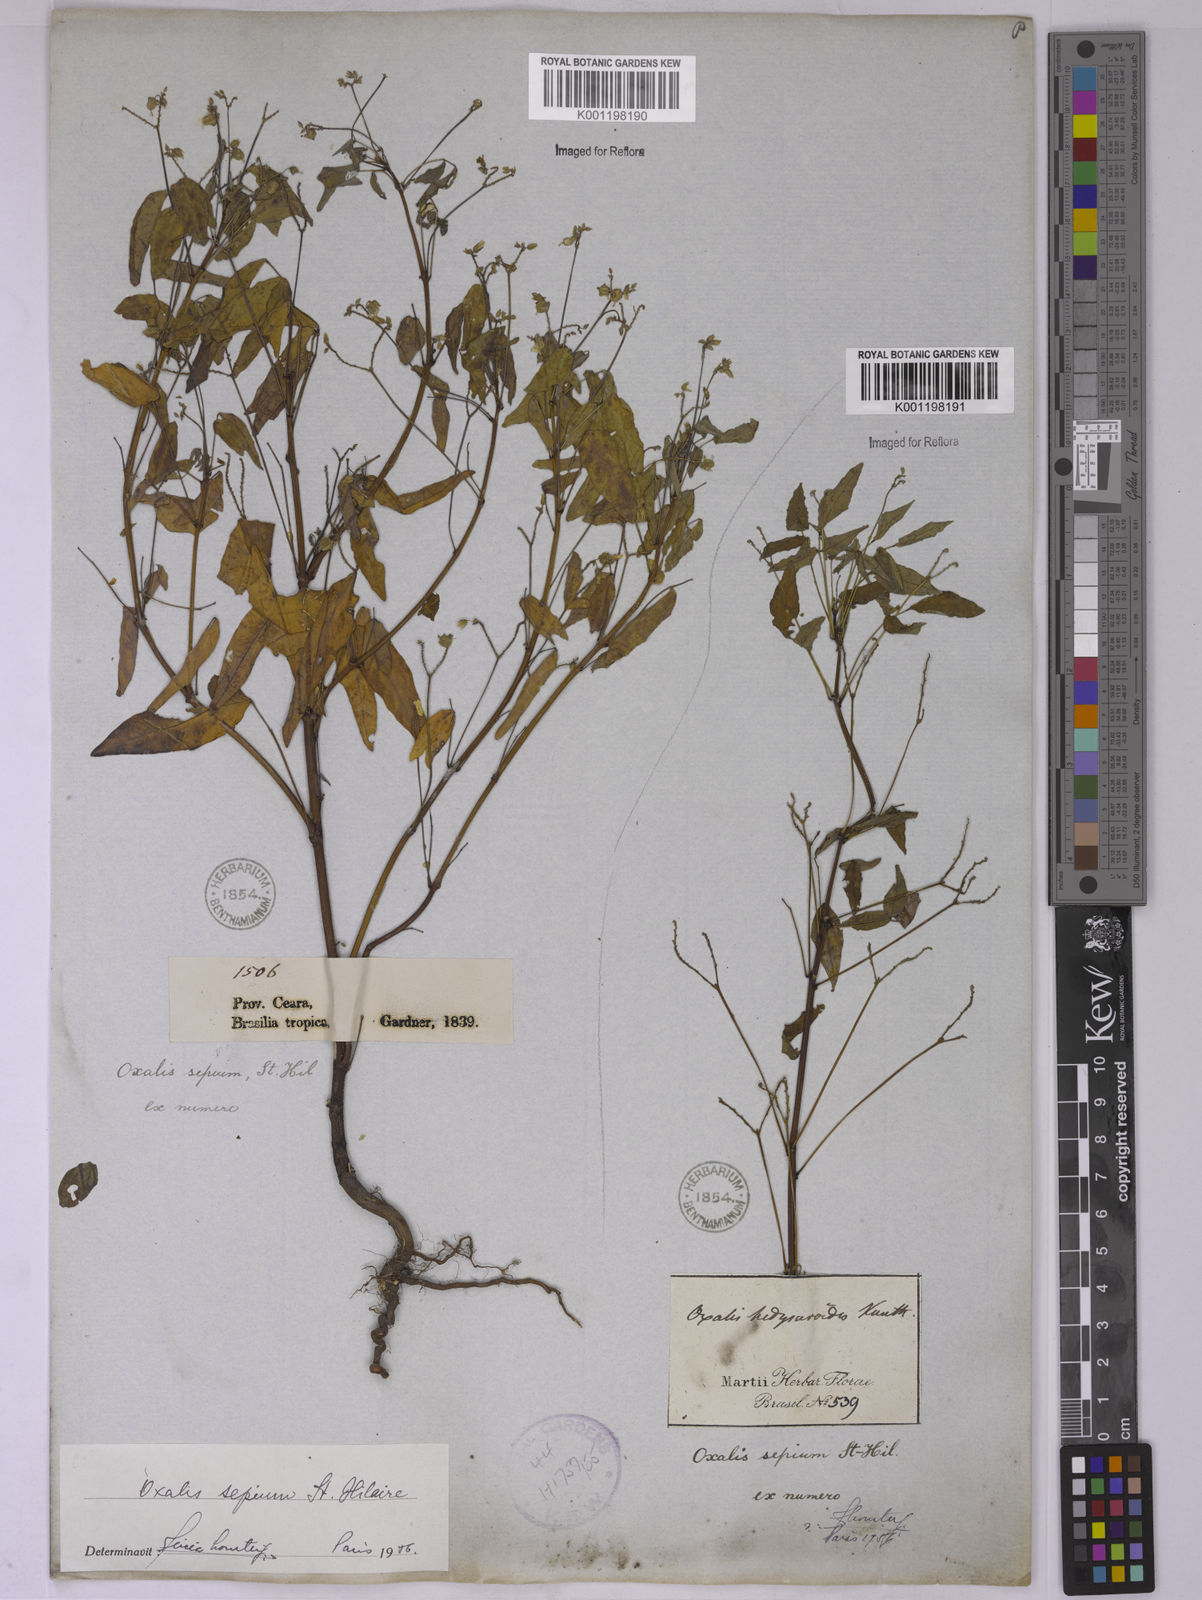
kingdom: Plantae
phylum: Tracheophyta
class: Magnoliopsida
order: Oxalidales
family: Oxalidaceae
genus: Oxalis
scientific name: Oxalis sepium
